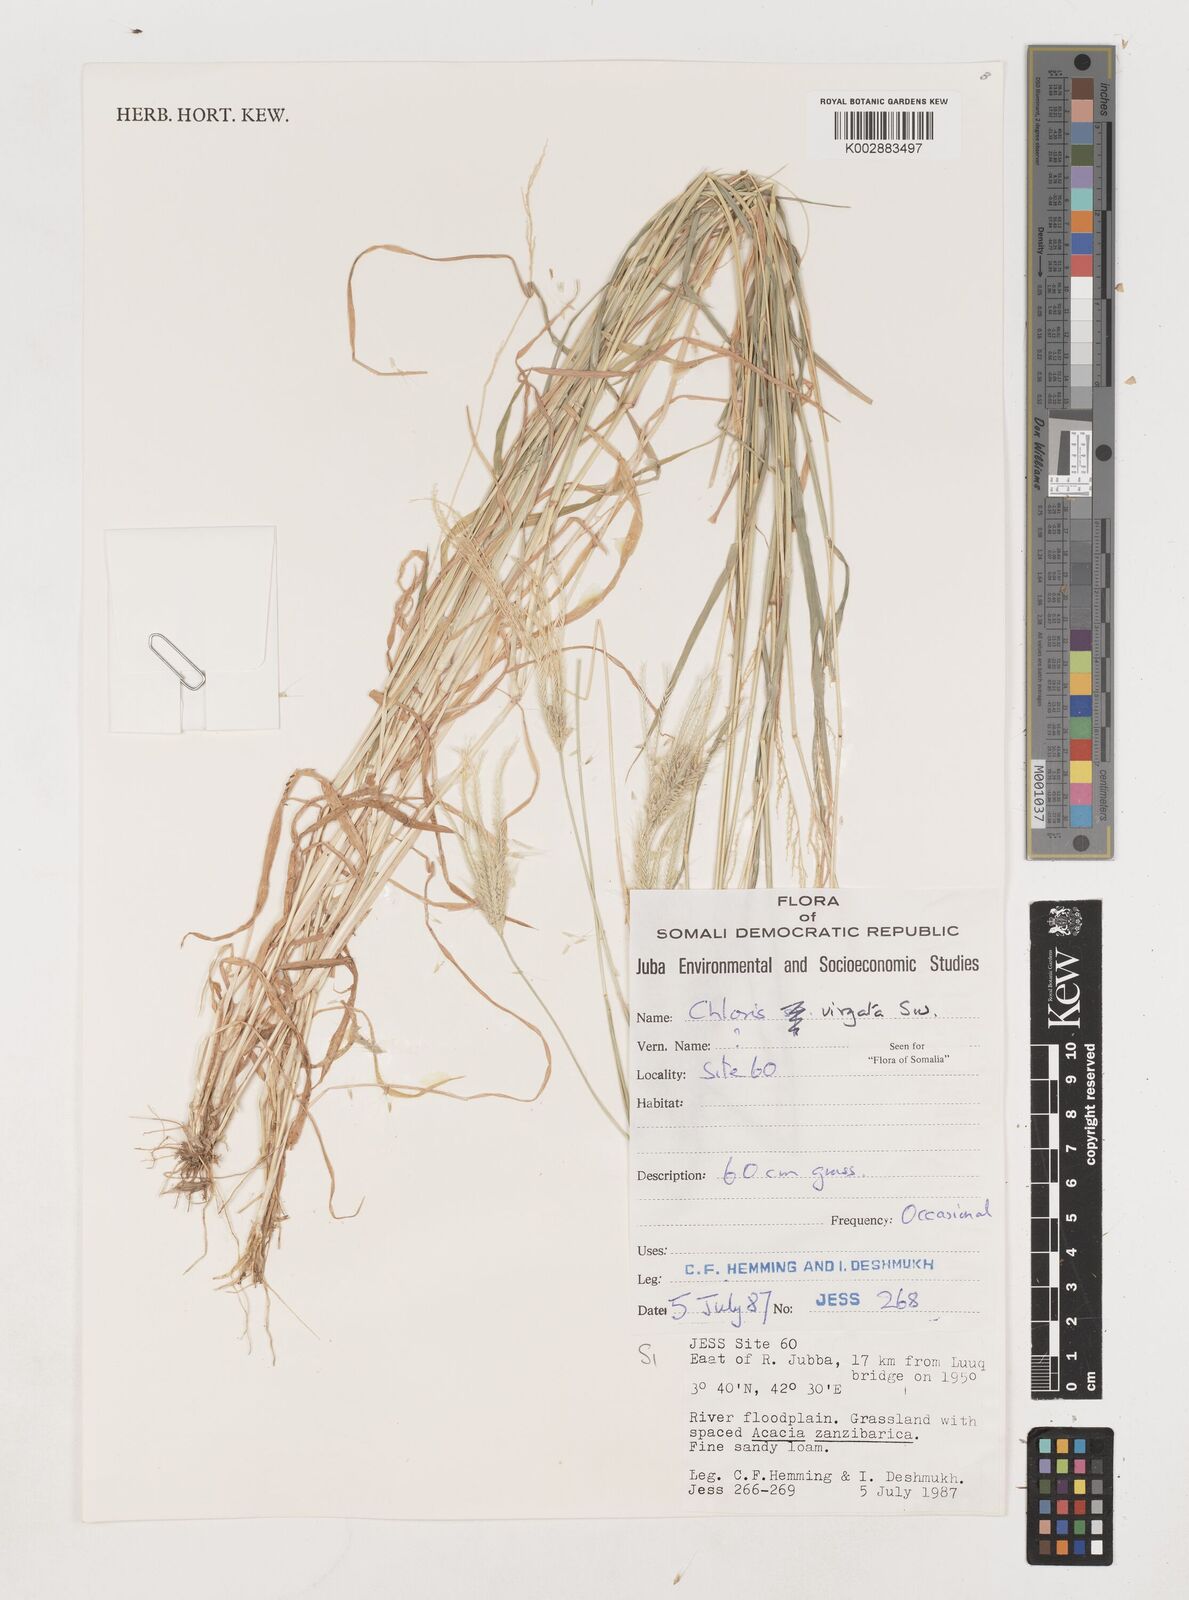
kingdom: Plantae
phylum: Tracheophyta
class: Liliopsida
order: Poales
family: Poaceae
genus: Chloris
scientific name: Chloris virgata
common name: Feathery rhodes-grass
